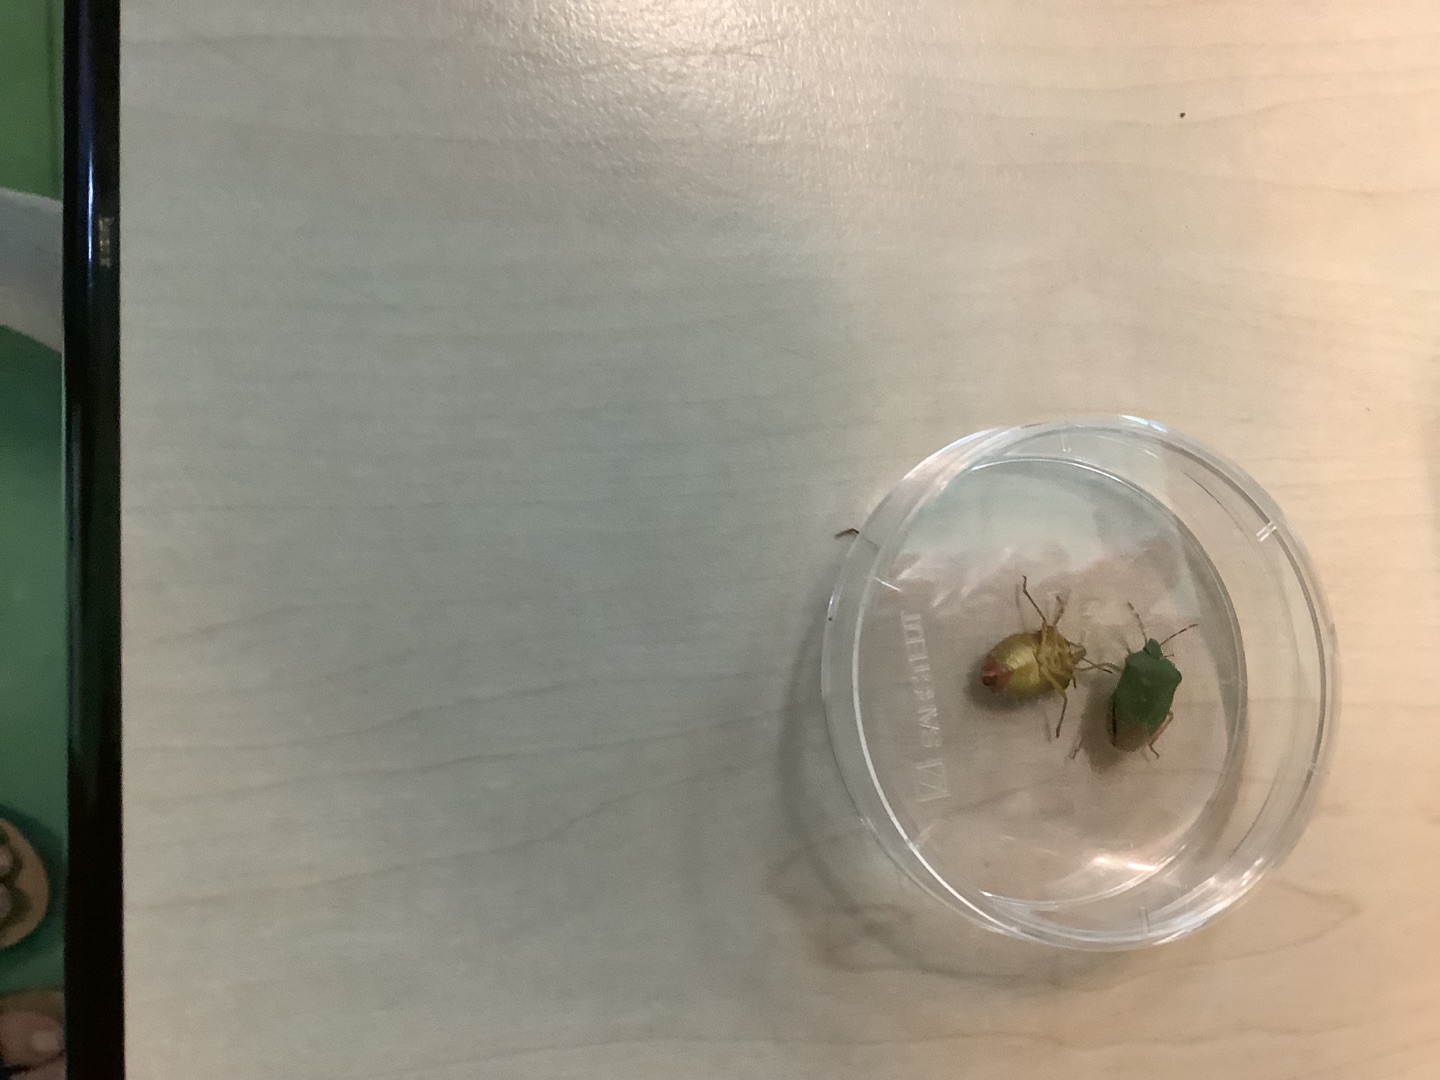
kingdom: Animalia
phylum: Arthropoda
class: Insecta
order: Hemiptera
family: Pentatomidae
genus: Palomena
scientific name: Palomena prasina
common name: Grøn bredtæge
